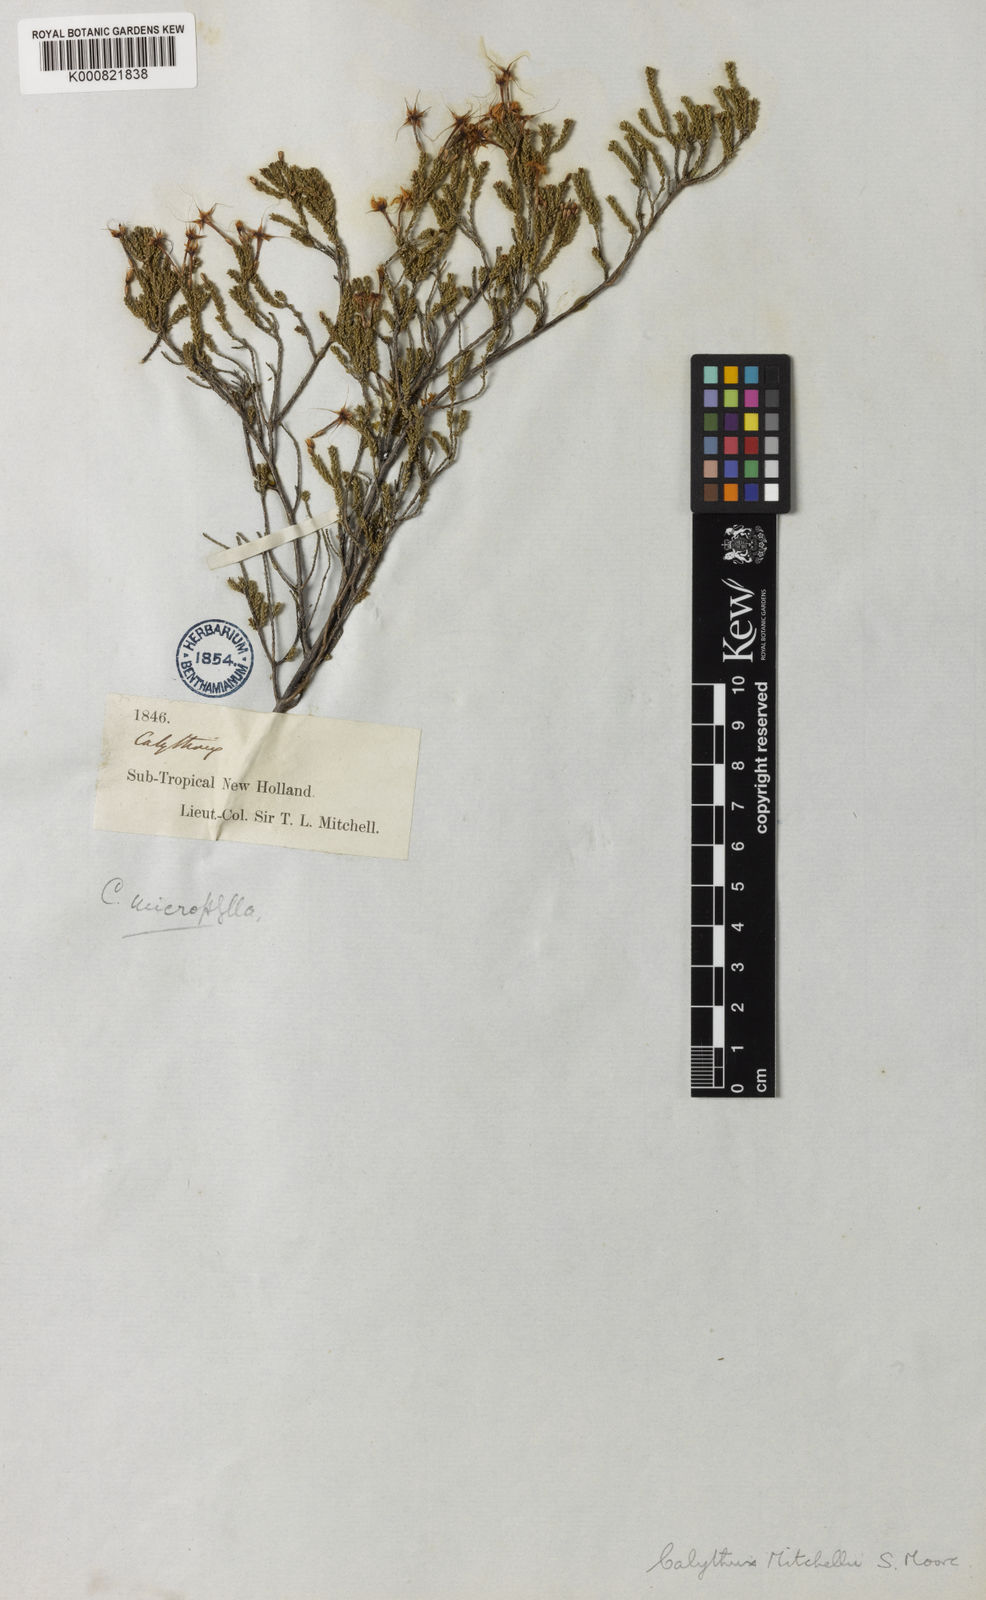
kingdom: Plantae
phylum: Tracheophyta
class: Magnoliopsida
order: Myrtales
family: Myrtaceae
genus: Calytrix
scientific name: Calytrix tetragona
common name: Common fringe myrtle
